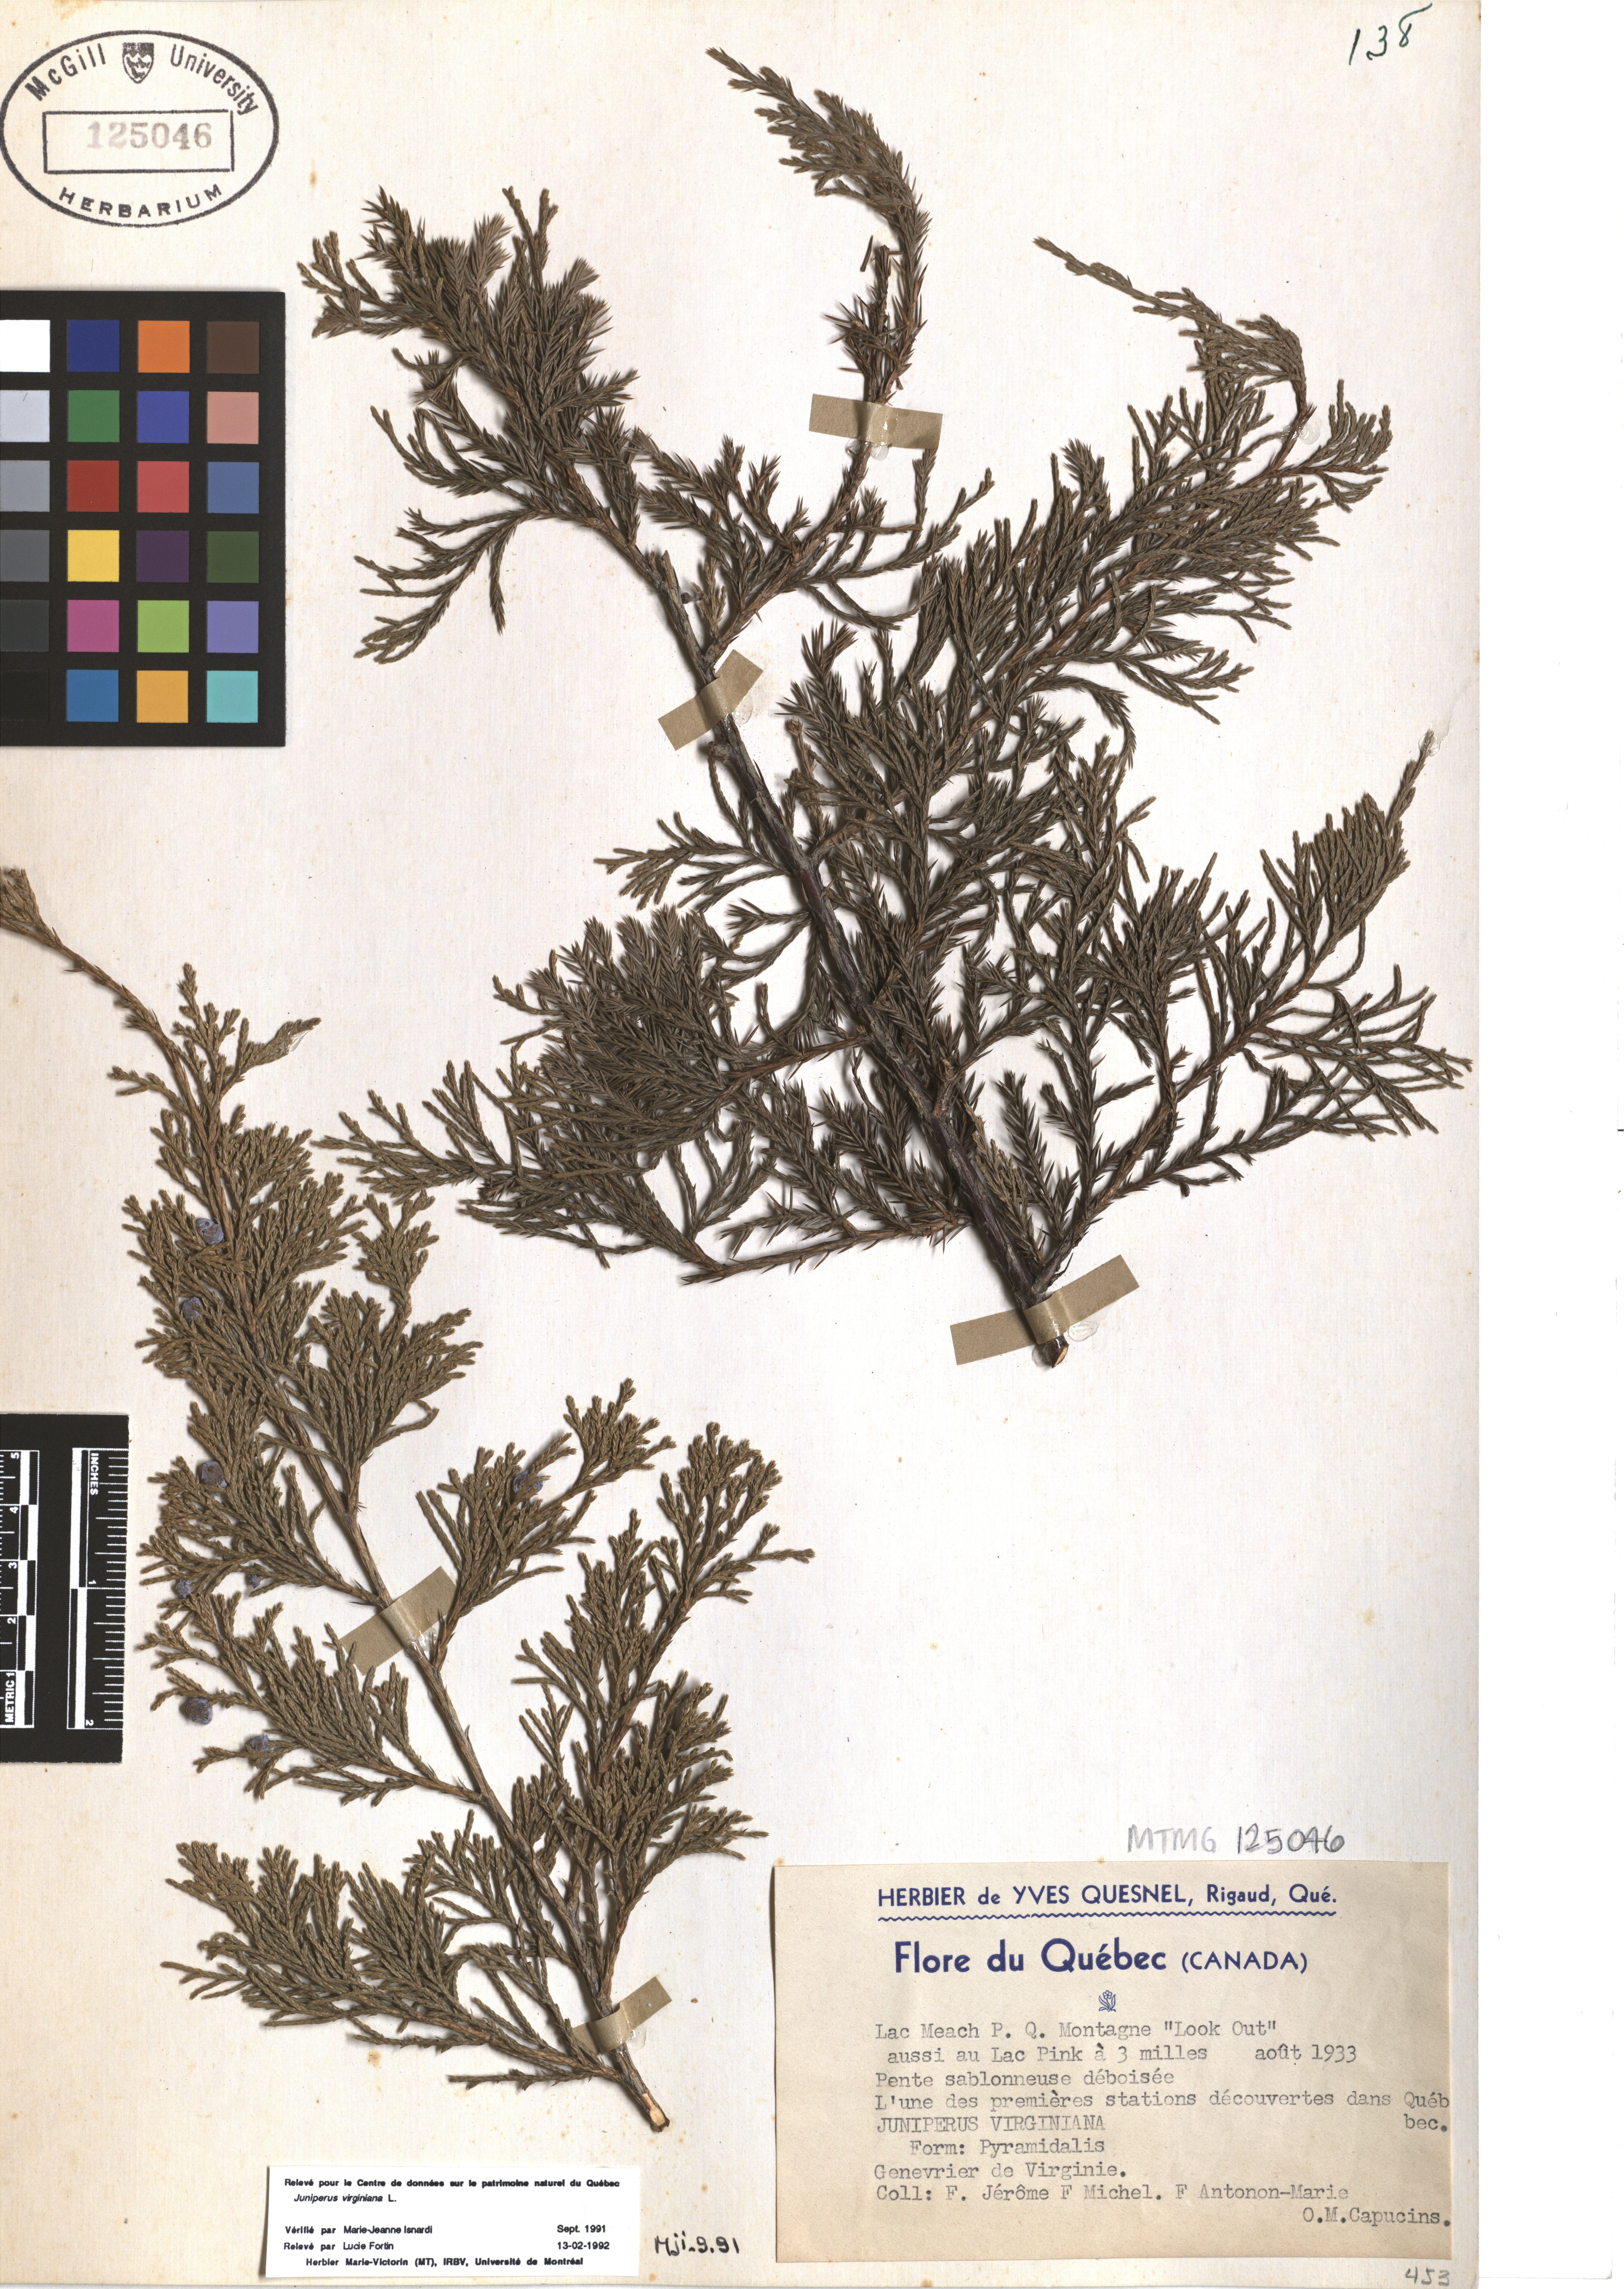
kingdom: Plantae
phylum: Tracheophyta
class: Pinopsida
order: Pinales
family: Cupressaceae
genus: Juniperus
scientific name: Juniperus virginiana
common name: Red juniper
